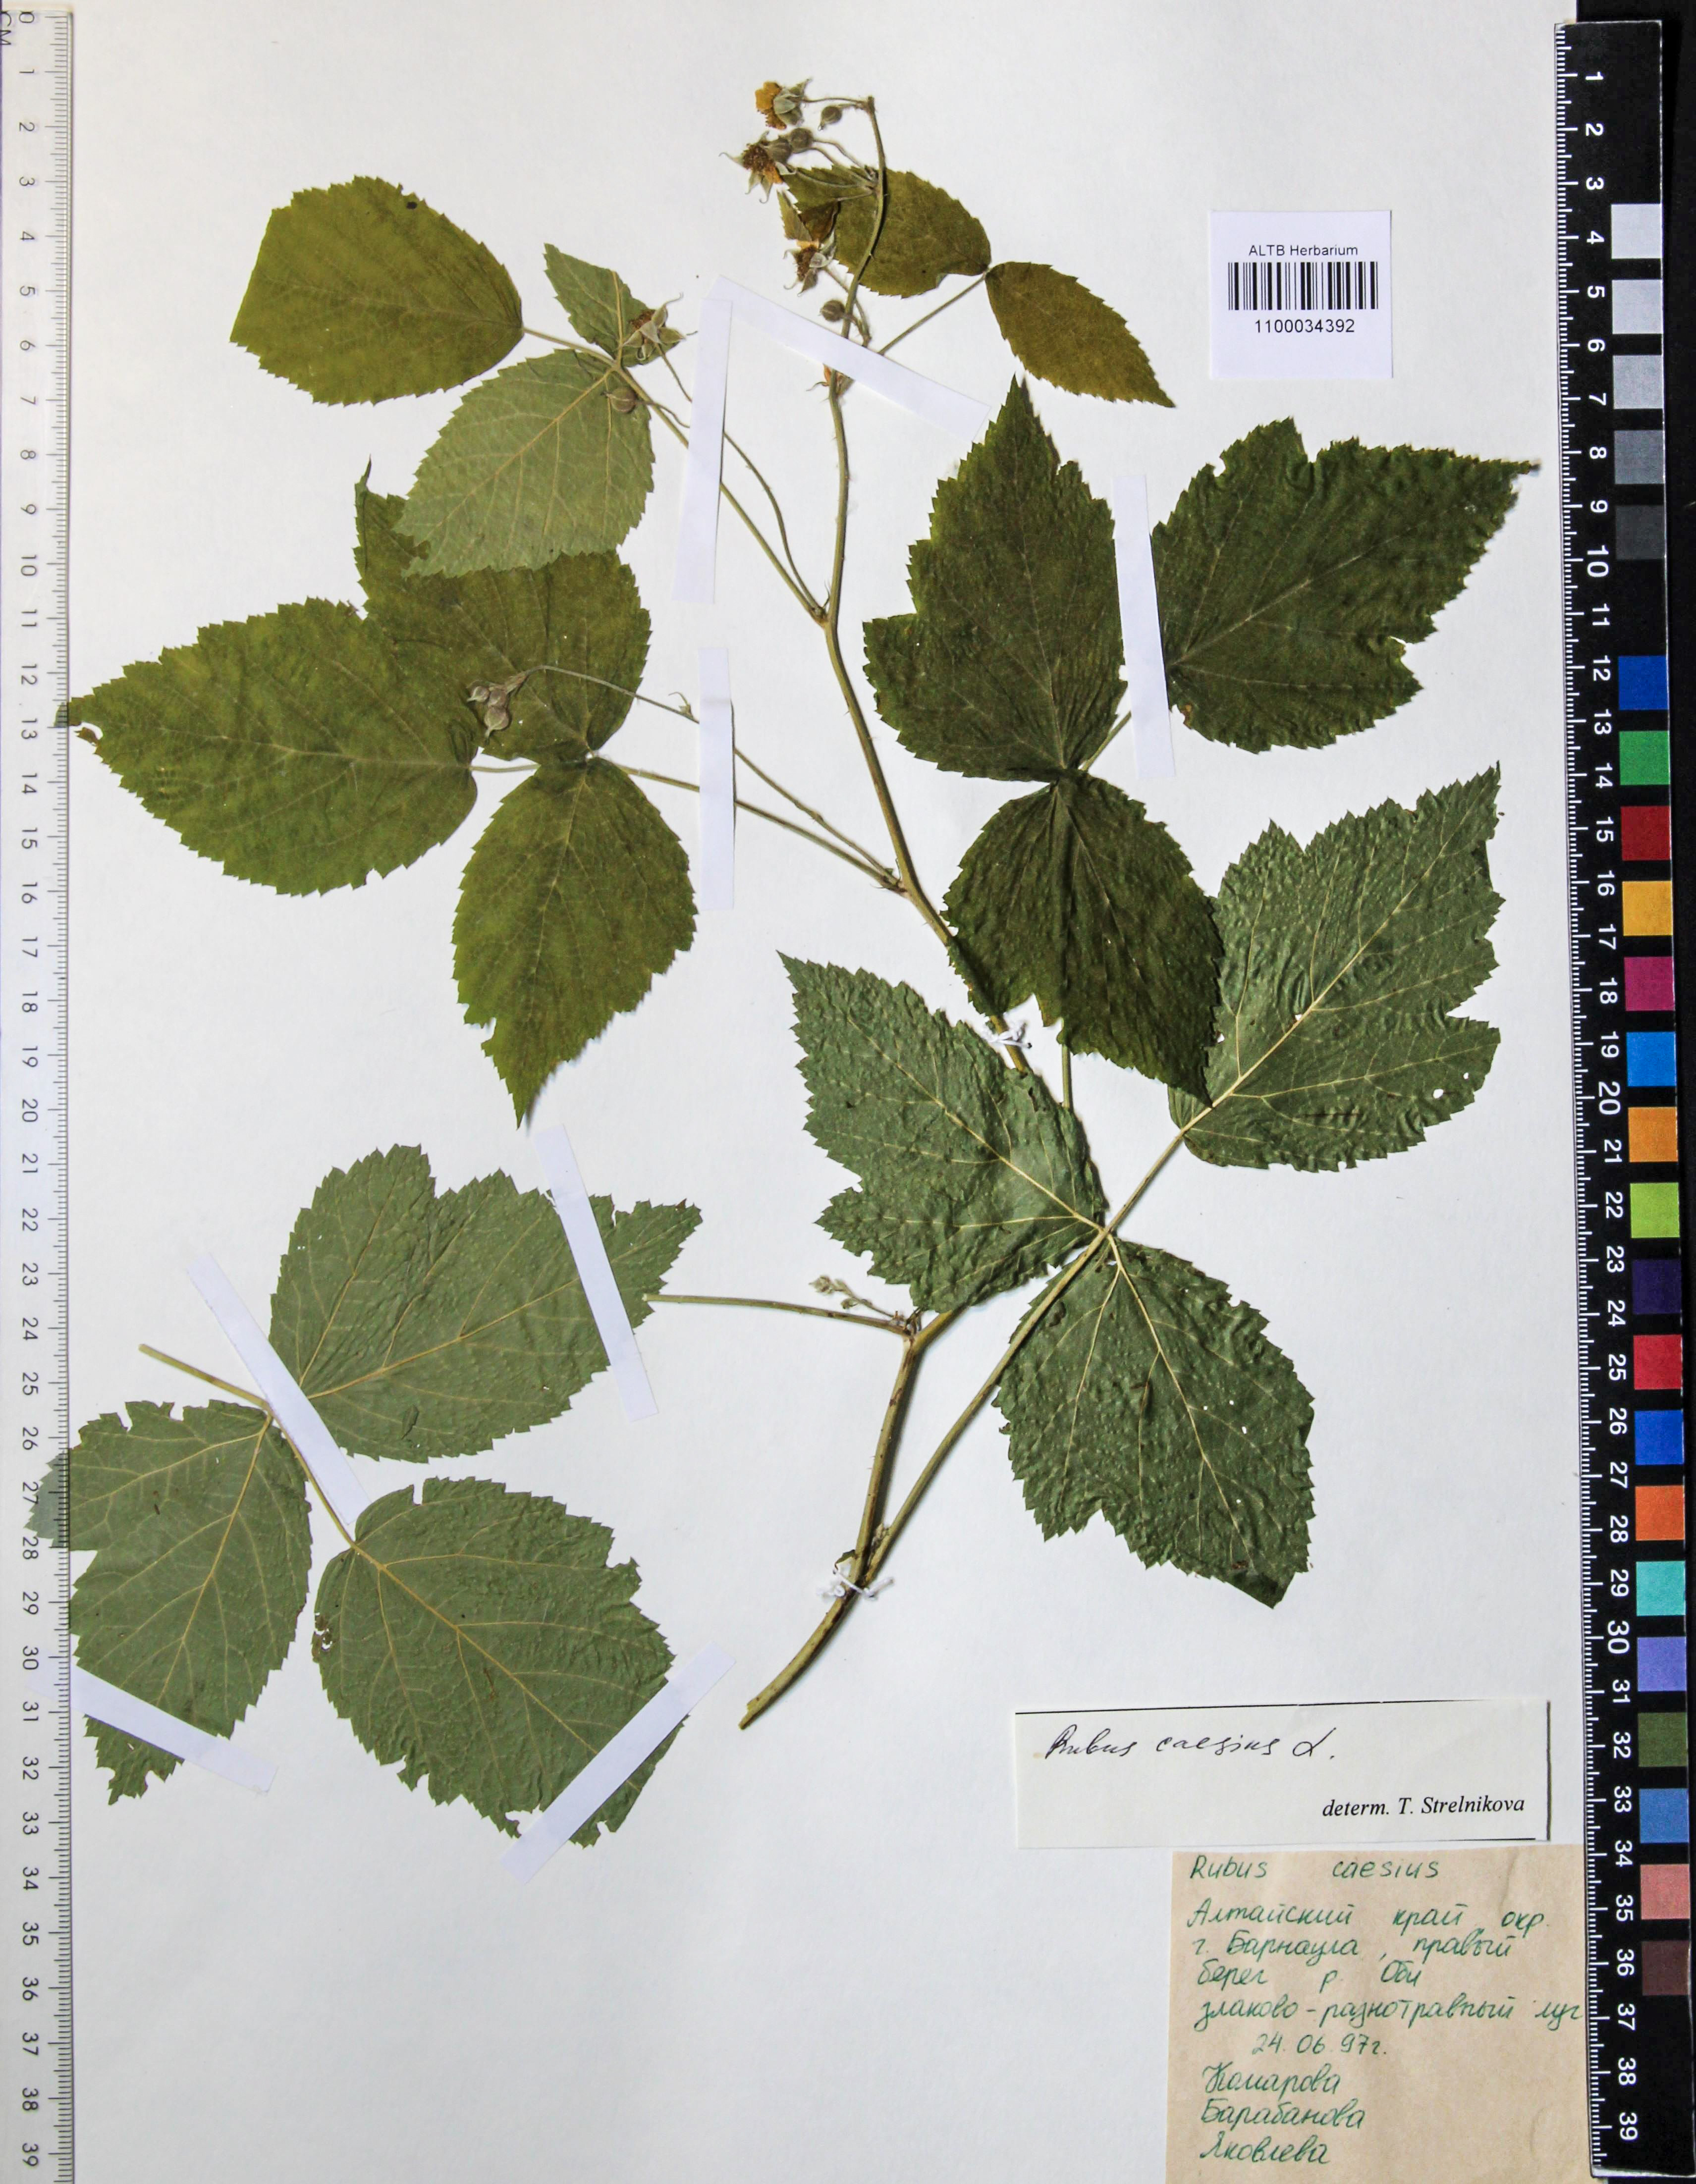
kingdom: Plantae
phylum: Tracheophyta
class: Magnoliopsida
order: Rosales
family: Rosaceae
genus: Rubus
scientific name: Rubus caesius
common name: Dewberry
